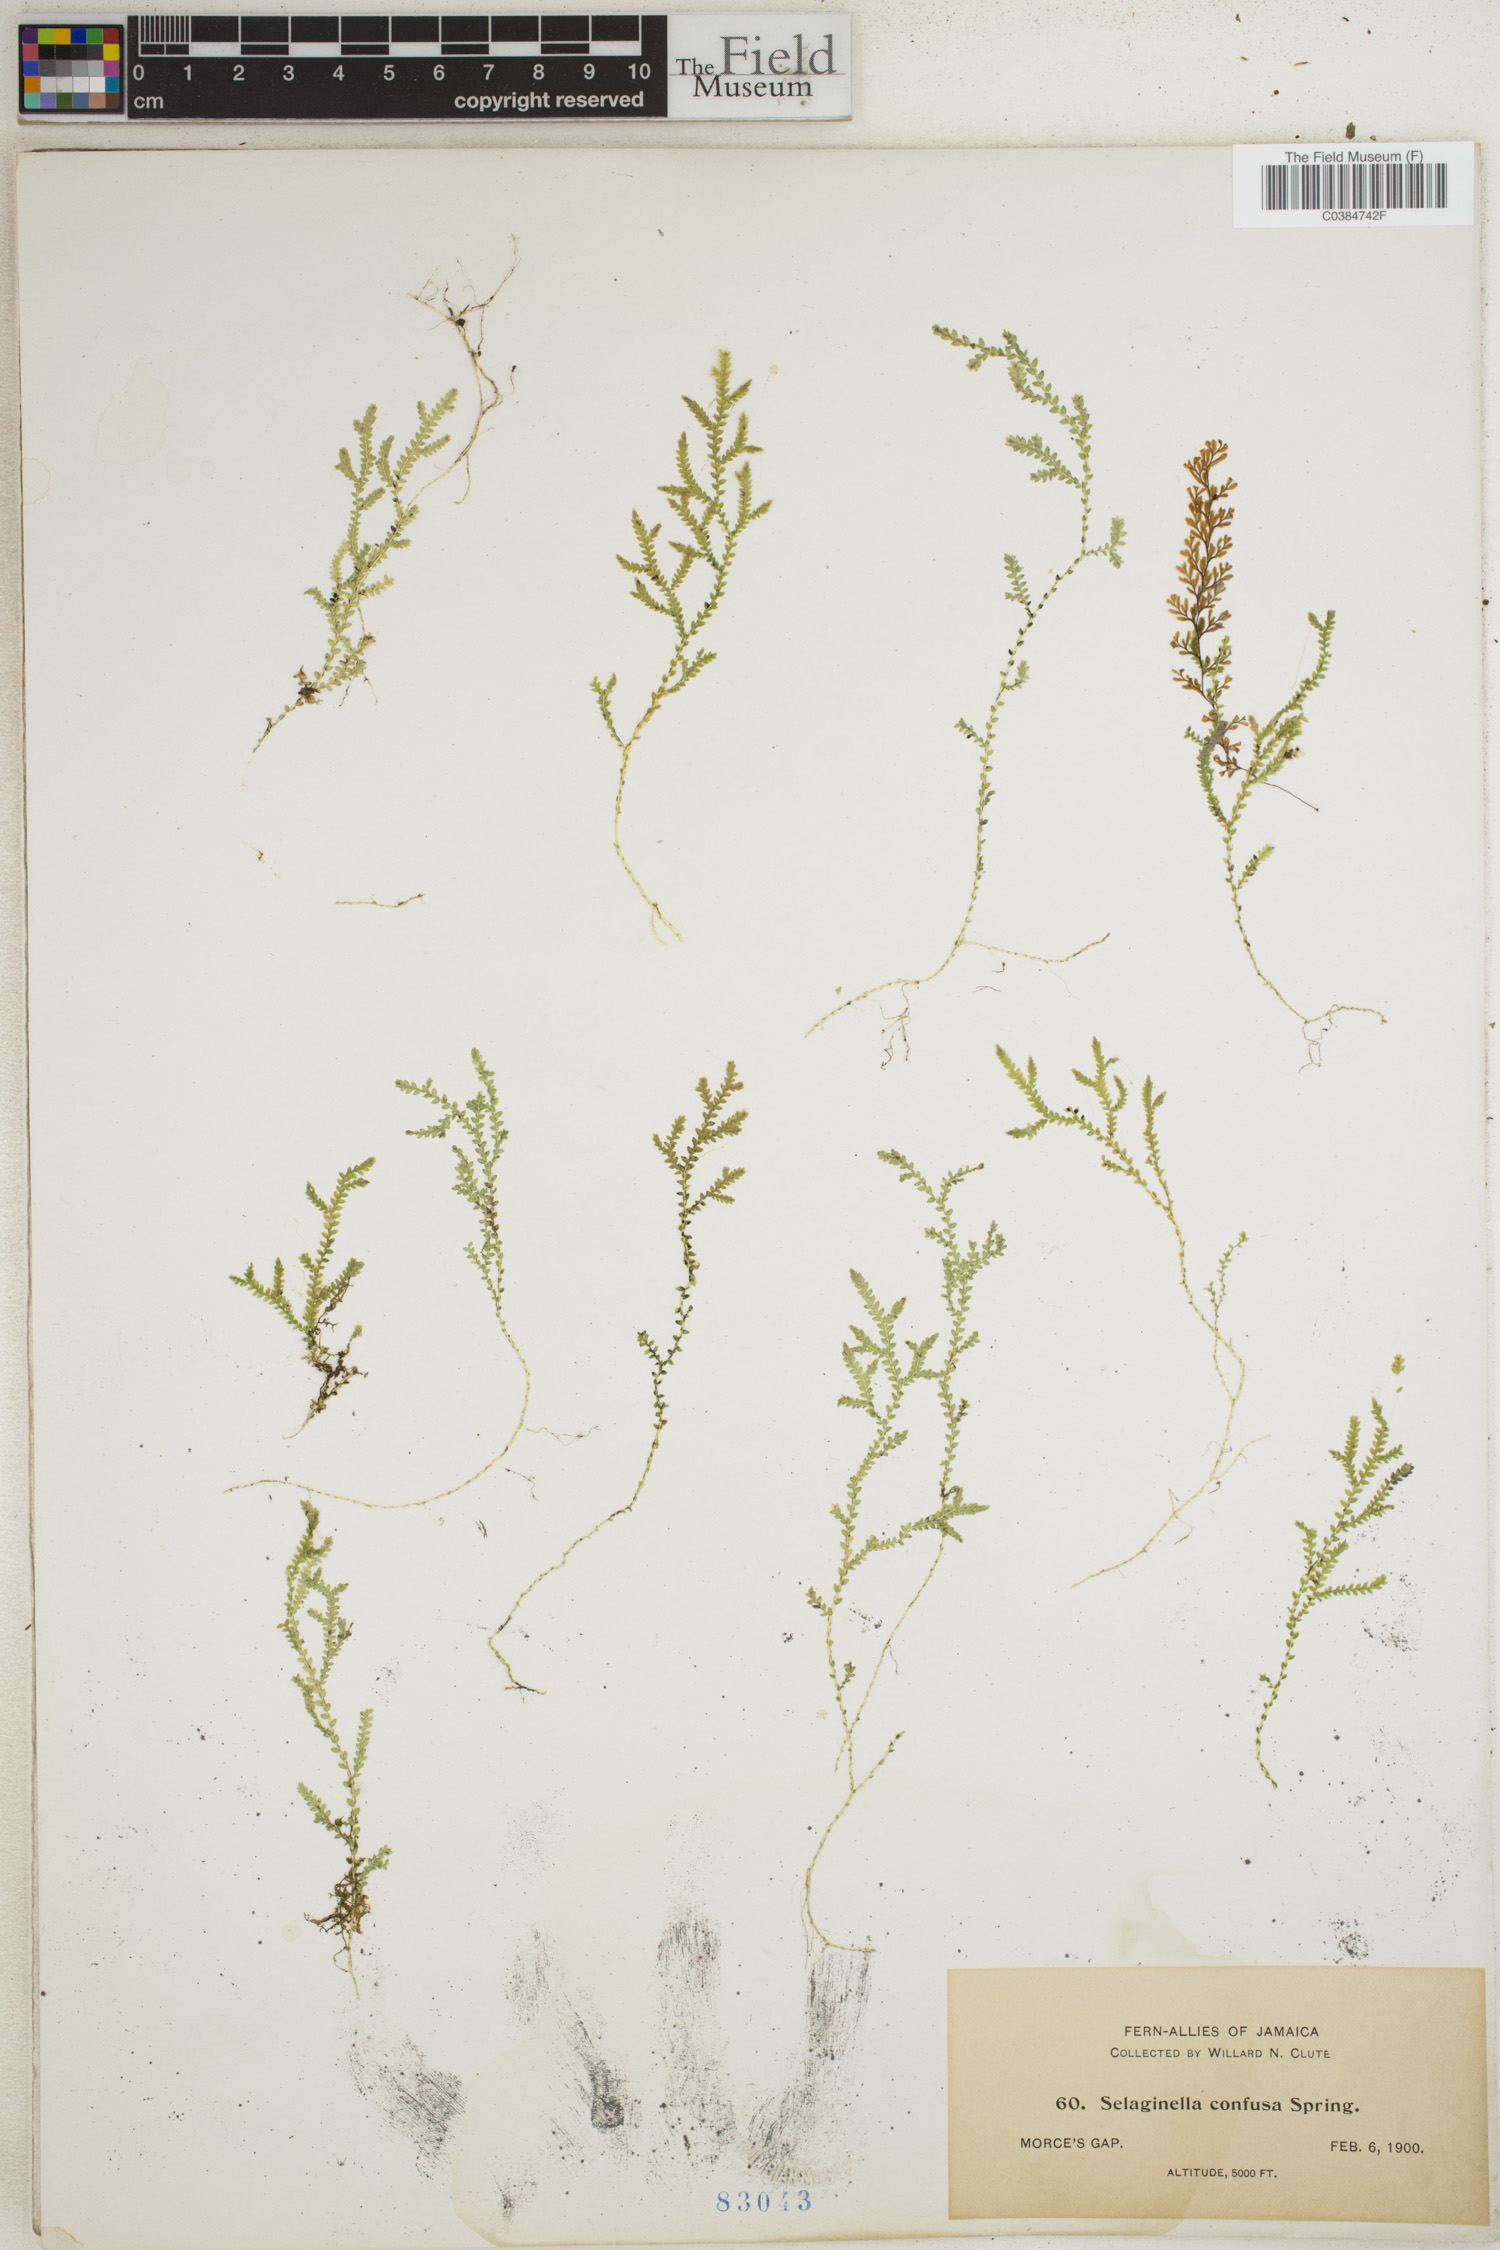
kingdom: Plantae
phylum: Tracheophyta
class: Lycopodiopsida
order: Selaginellales
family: Selaginellaceae
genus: Selaginella
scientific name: Selaginella confusa
